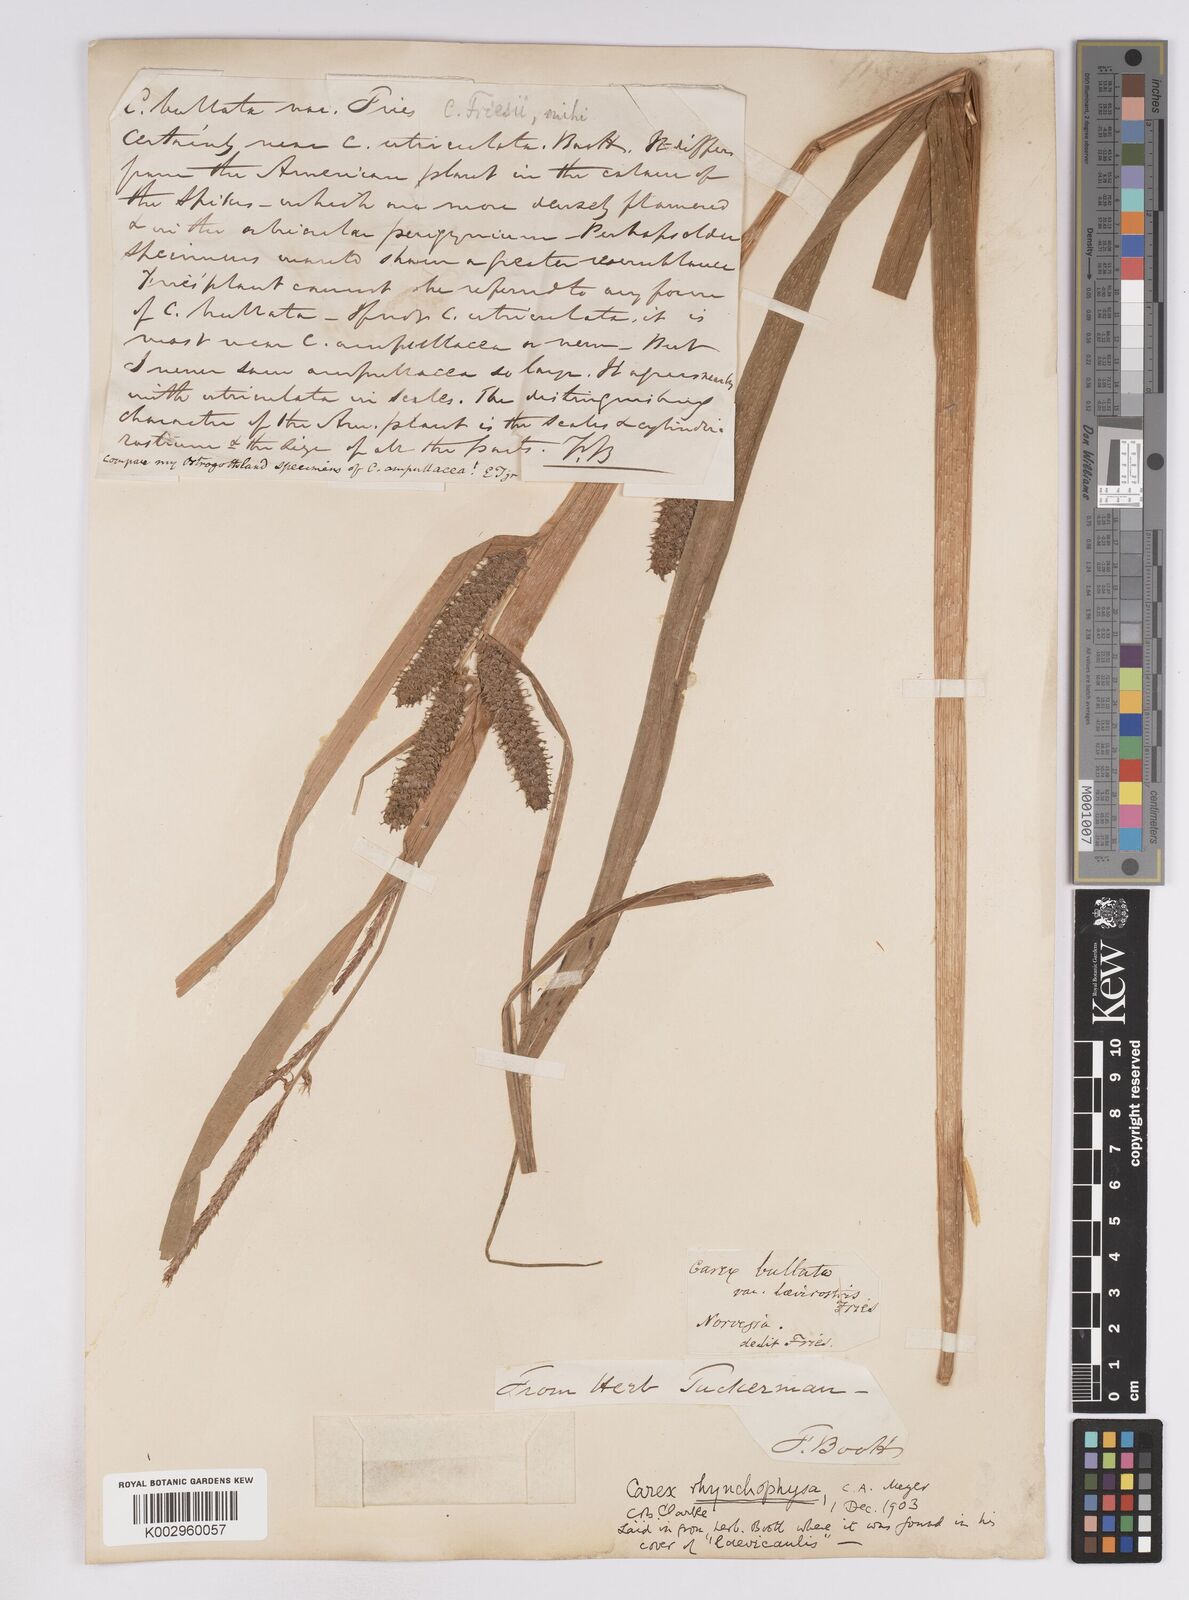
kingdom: Plantae
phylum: Tracheophyta
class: Liliopsida
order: Poales
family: Cyperaceae
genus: Carex
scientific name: Carex utriculata
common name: Beaked sedge
